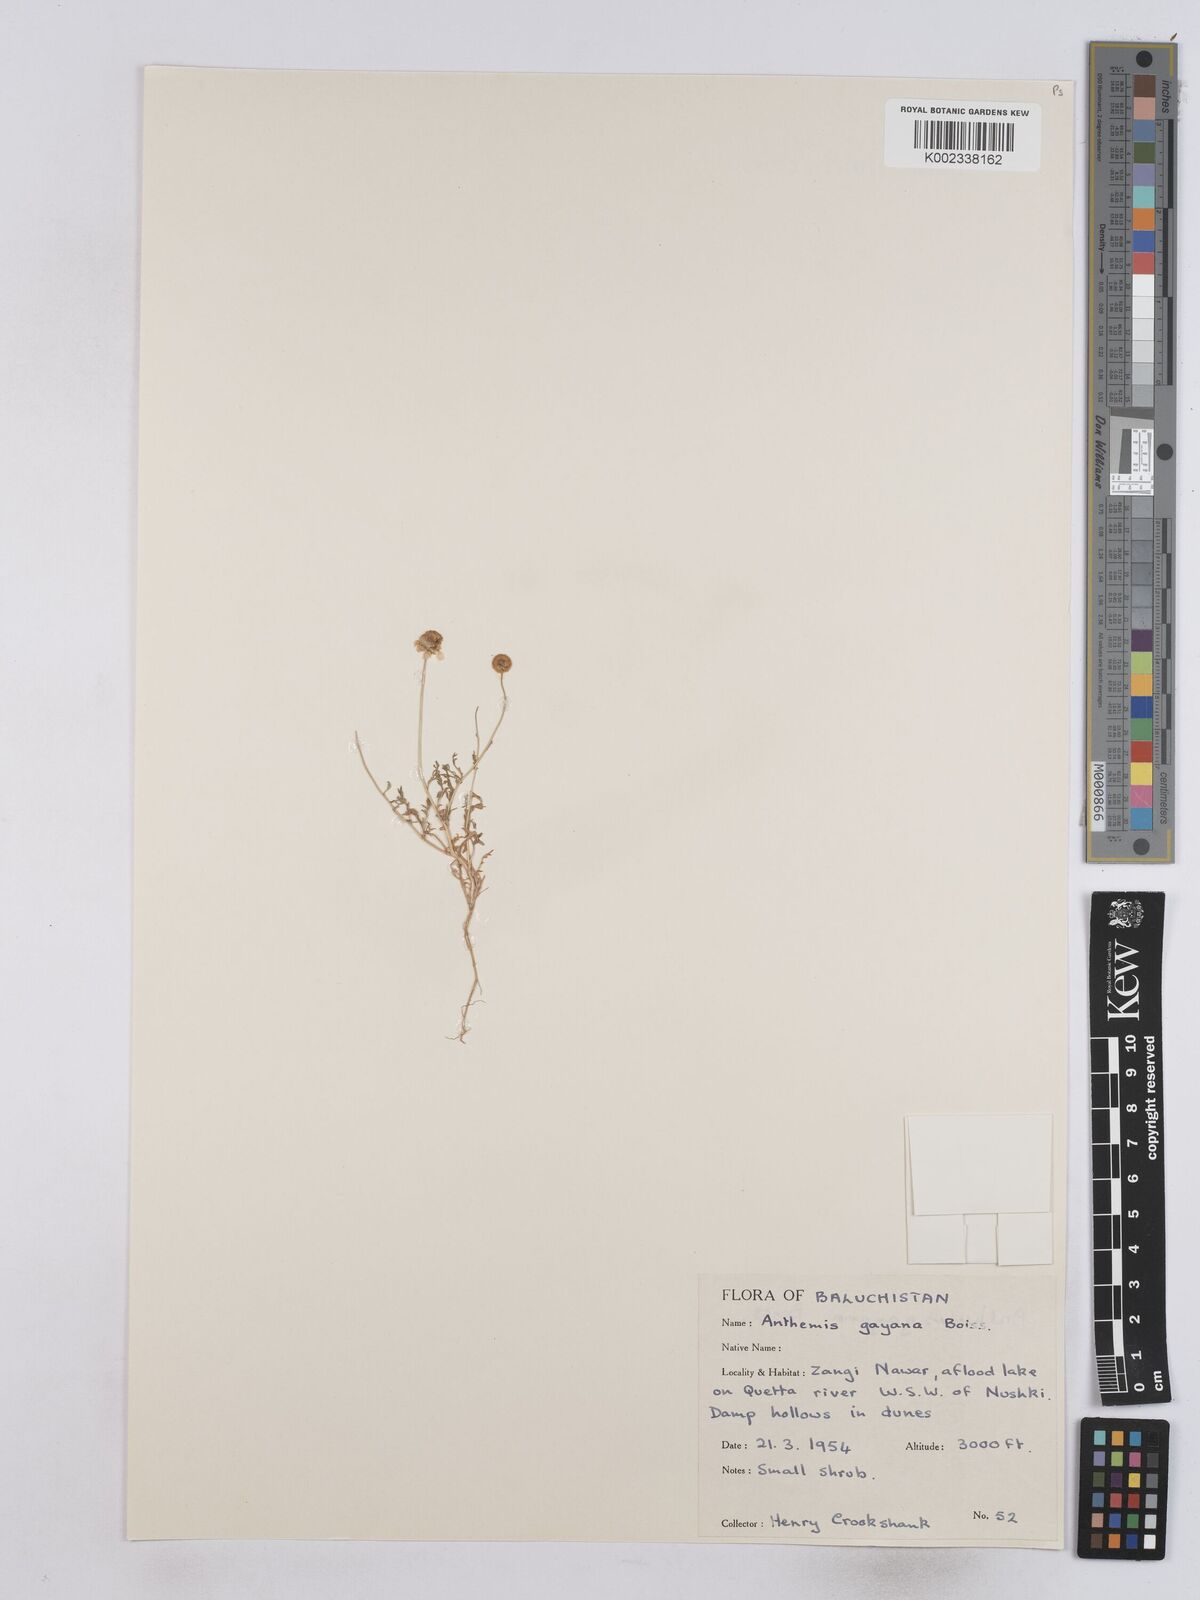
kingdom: Plantae
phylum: Tracheophyta
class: Magnoliopsida
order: Asterales
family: Asteraceae
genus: Matricaria
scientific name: Matricaria
